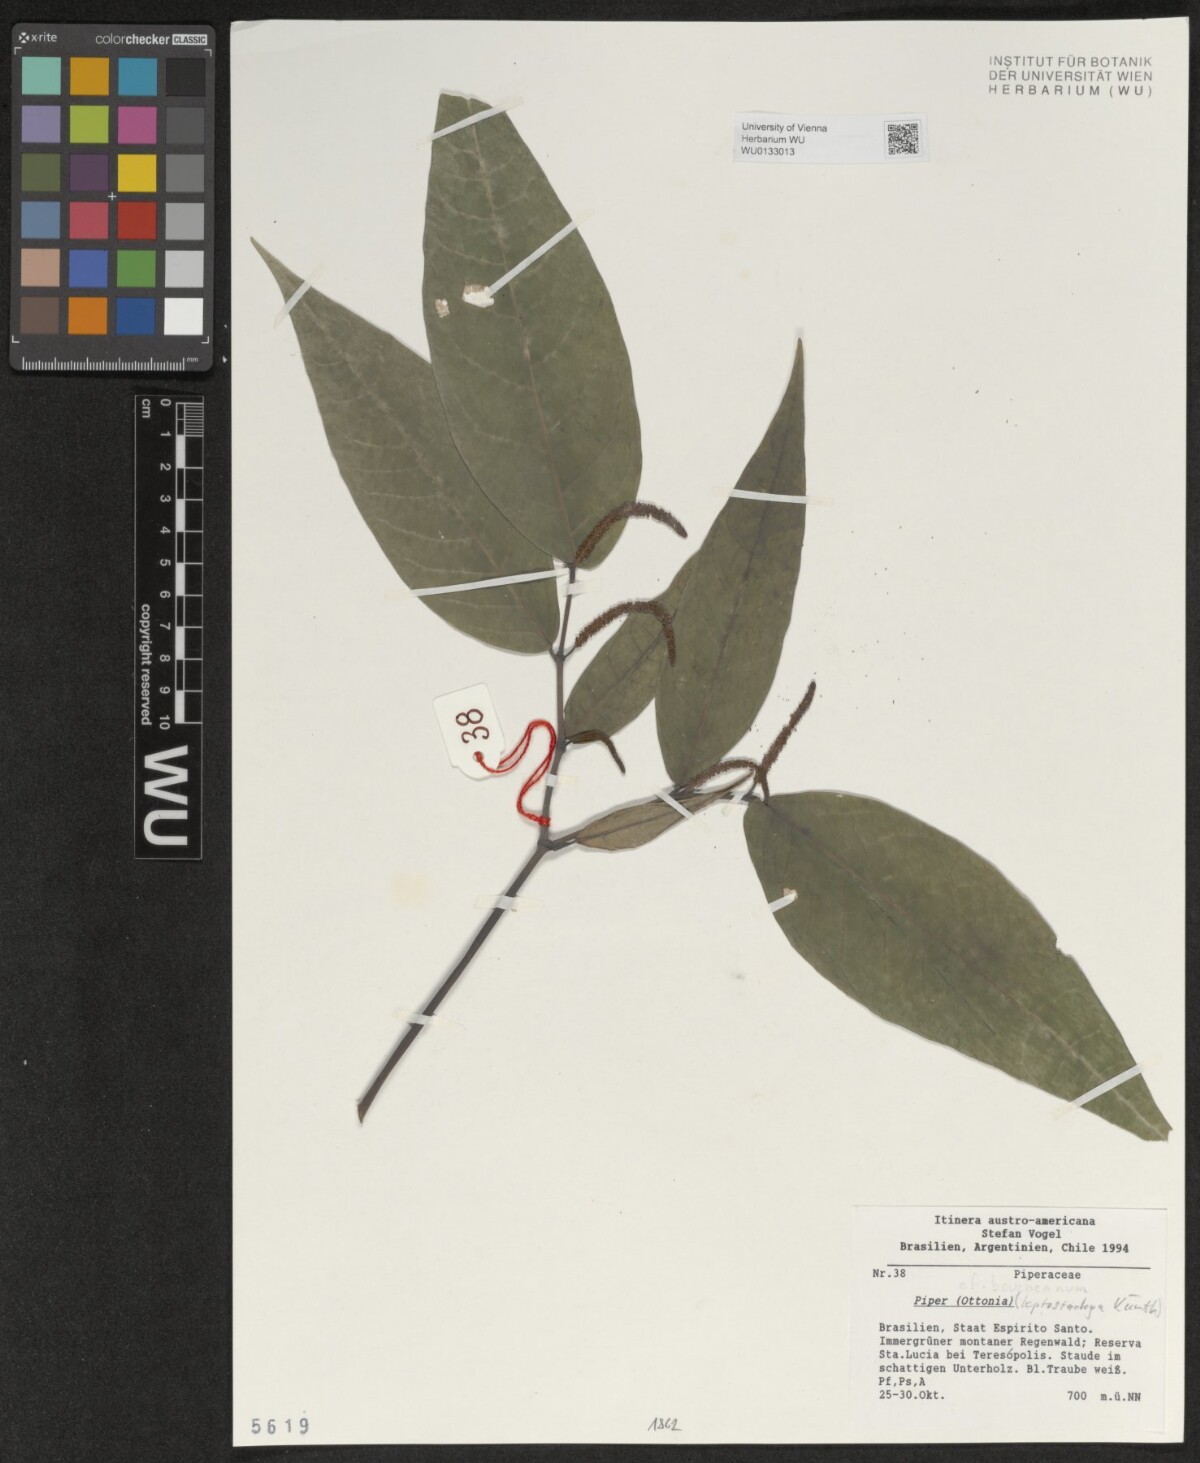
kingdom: Plantae
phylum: Tracheophyta
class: Magnoliopsida
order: Piperales
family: Piperaceae
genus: Piper
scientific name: Piper
